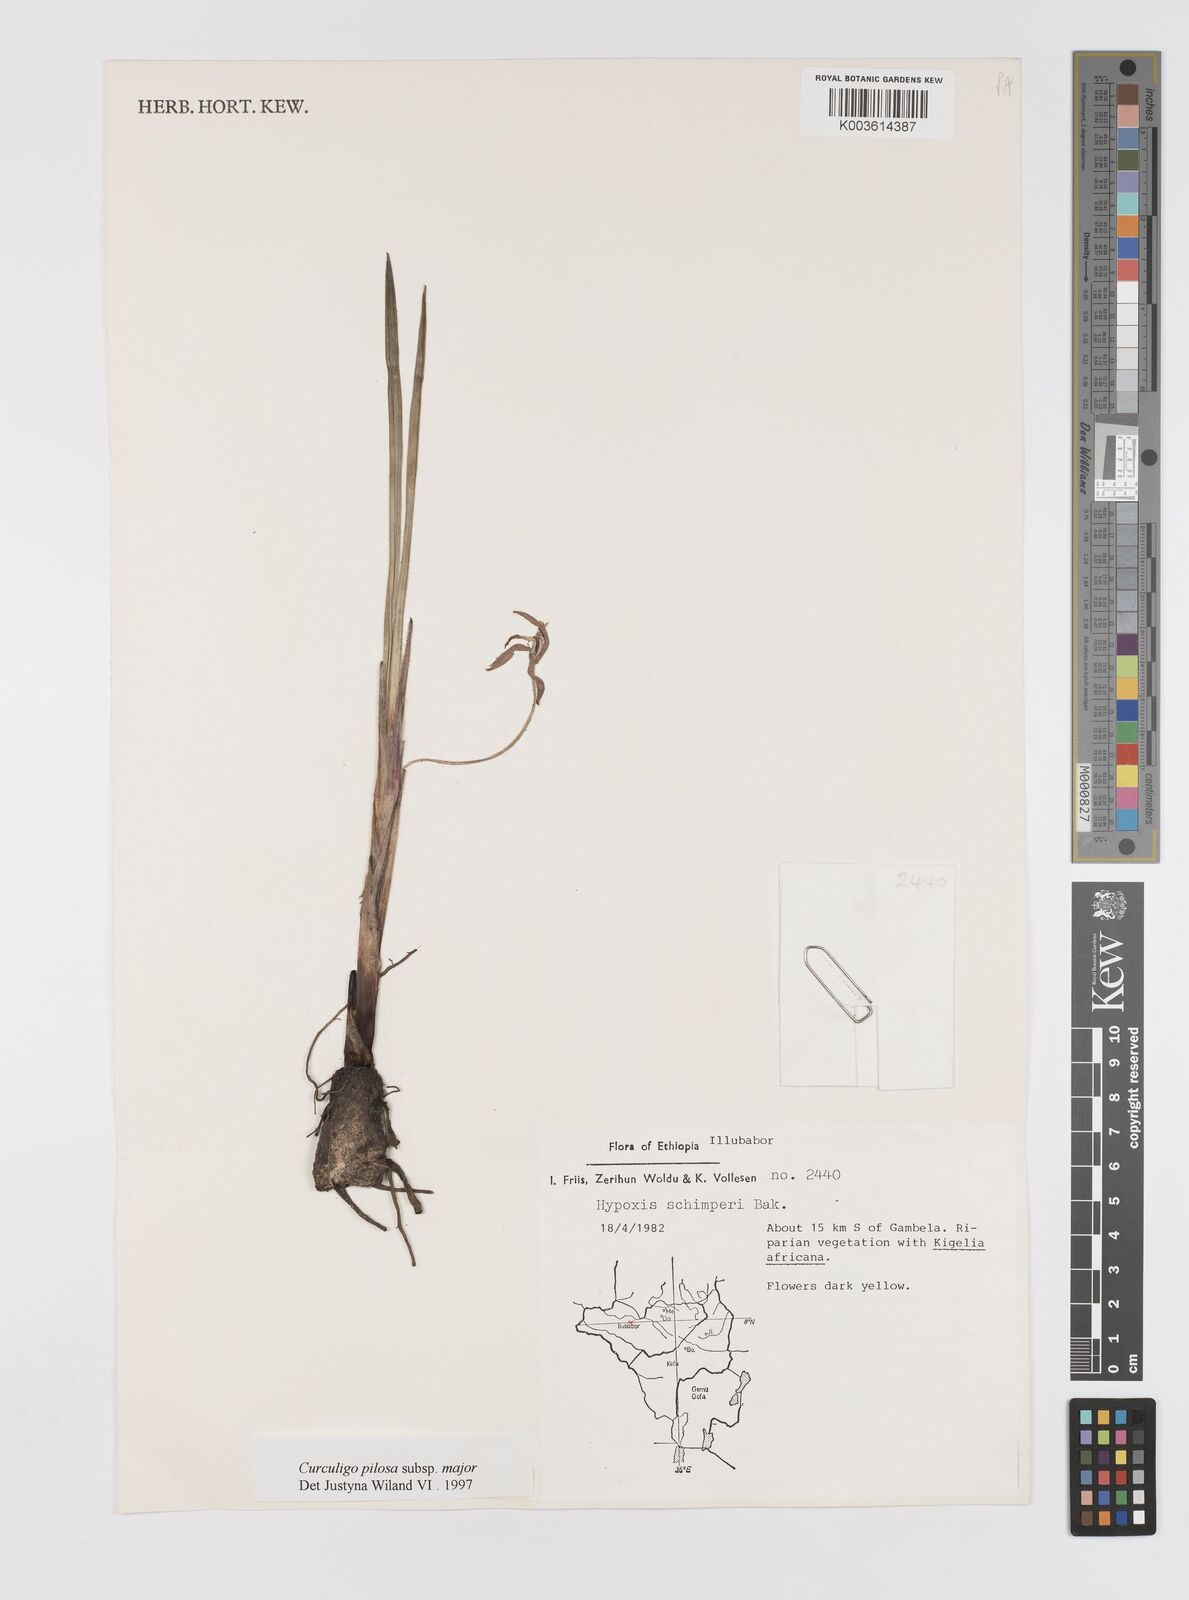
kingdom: Plantae
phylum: Tracheophyta
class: Liliopsida
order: Asparagales
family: Hypoxidaceae
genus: Curculigo
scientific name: Curculigo pilosa
